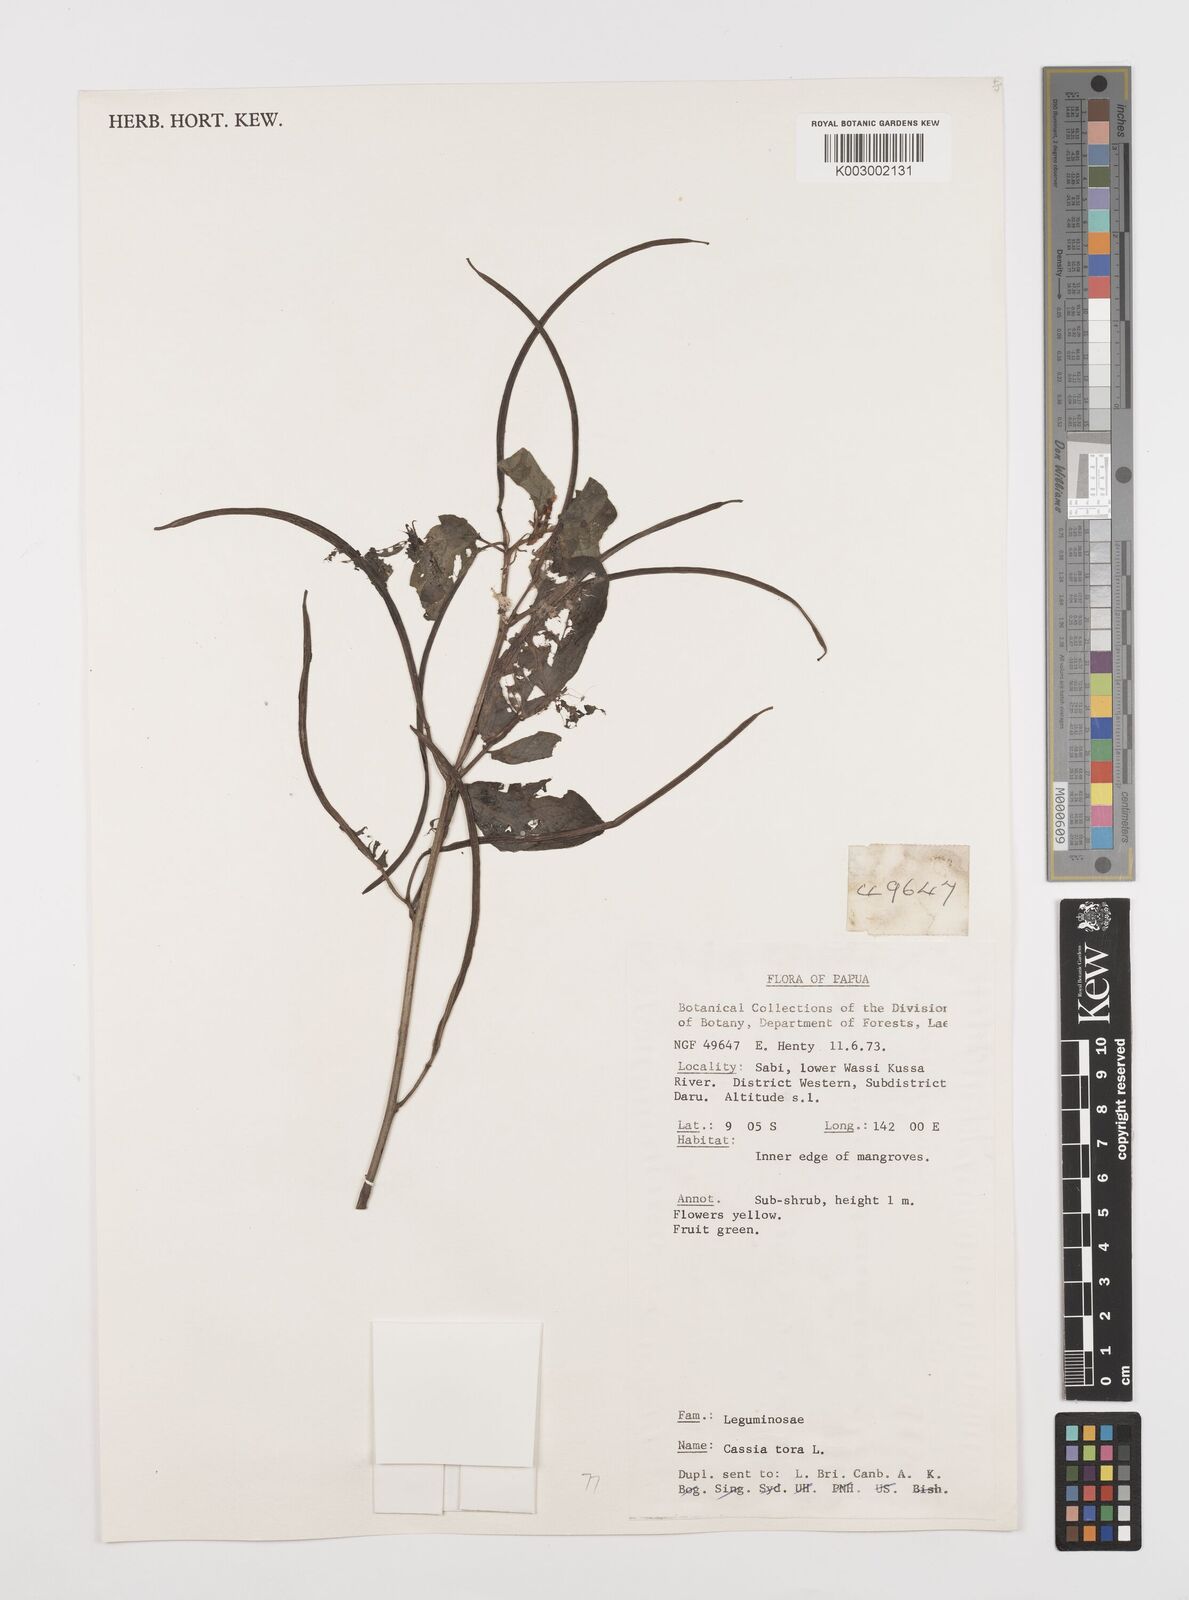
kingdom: Plantae
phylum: Tracheophyta
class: Magnoliopsida
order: Fabales
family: Fabaceae
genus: Senna
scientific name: Senna tora
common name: Sickle senna
